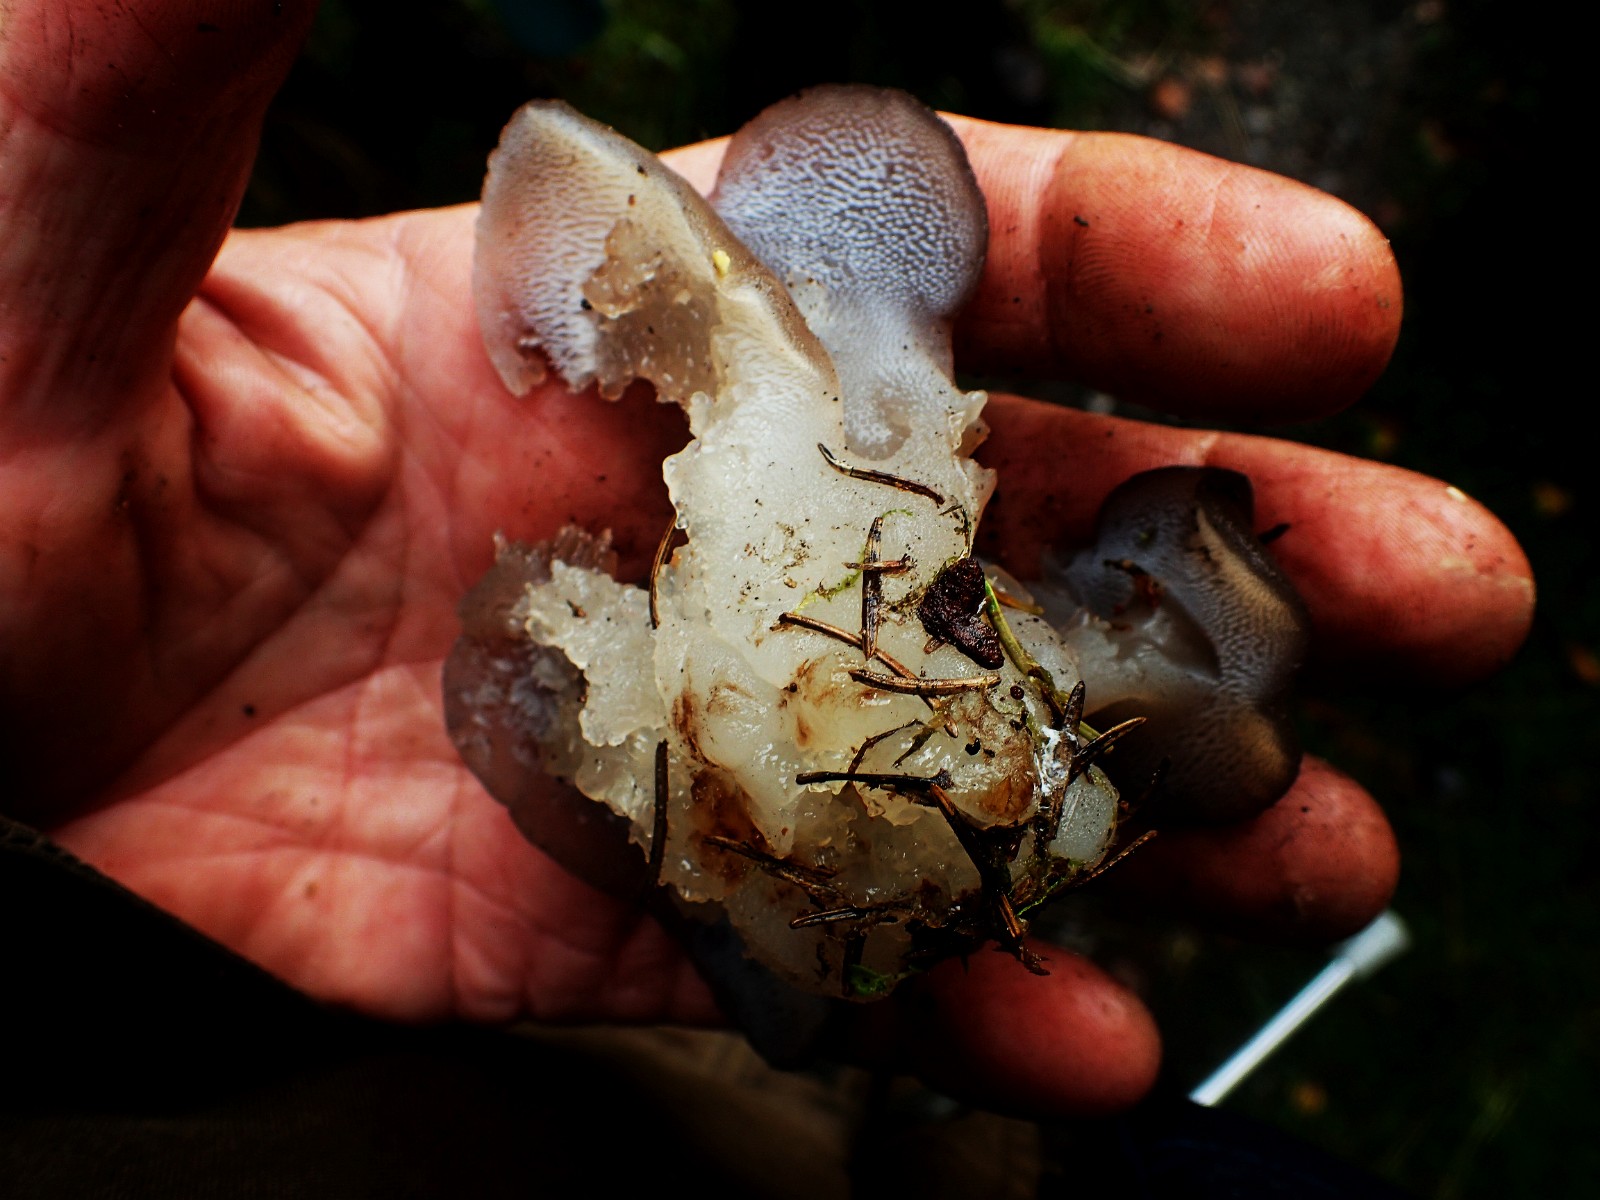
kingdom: Fungi
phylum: Basidiomycota
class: Agaricomycetes
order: Auriculariales
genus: Pseudohydnum
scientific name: Pseudohydnum gelatinosum
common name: bævretand
